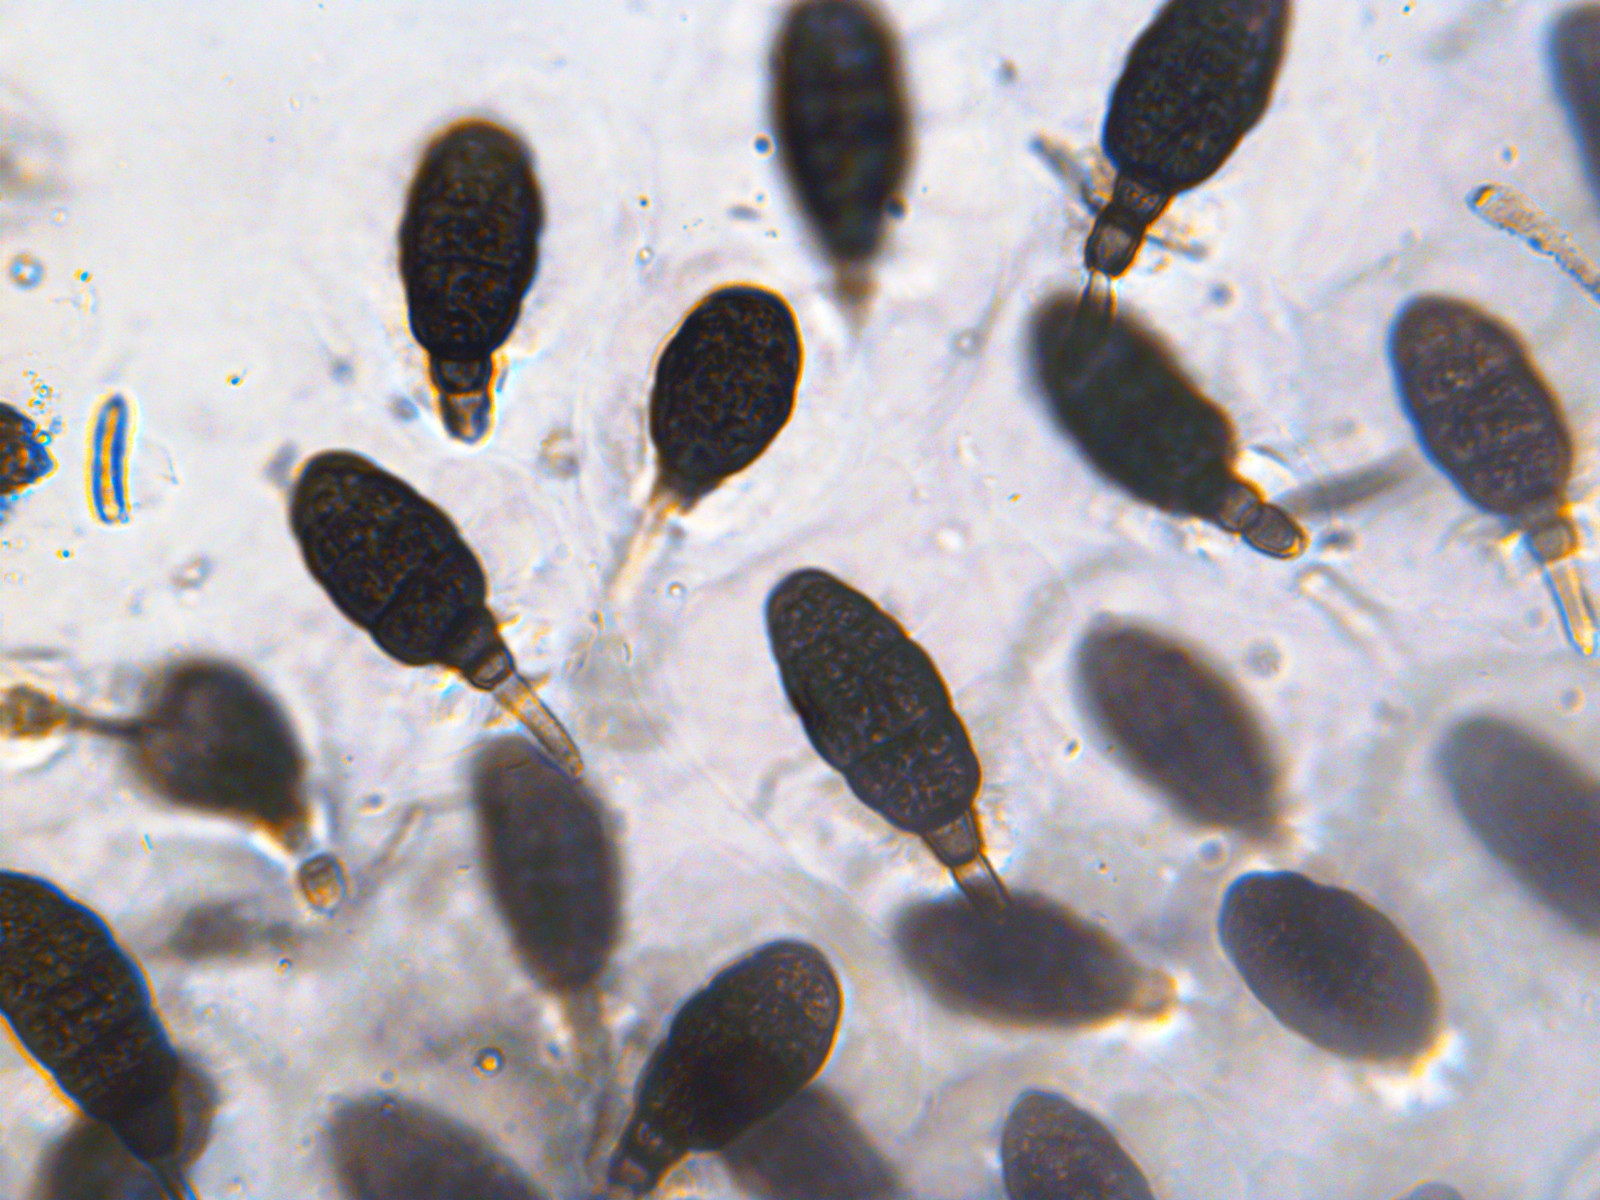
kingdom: Fungi
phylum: Ascomycota
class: Dothideomycetes
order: Pleosporales
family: Pleomassariaceae
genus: Splanchnonema
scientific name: Splanchnonema argus
